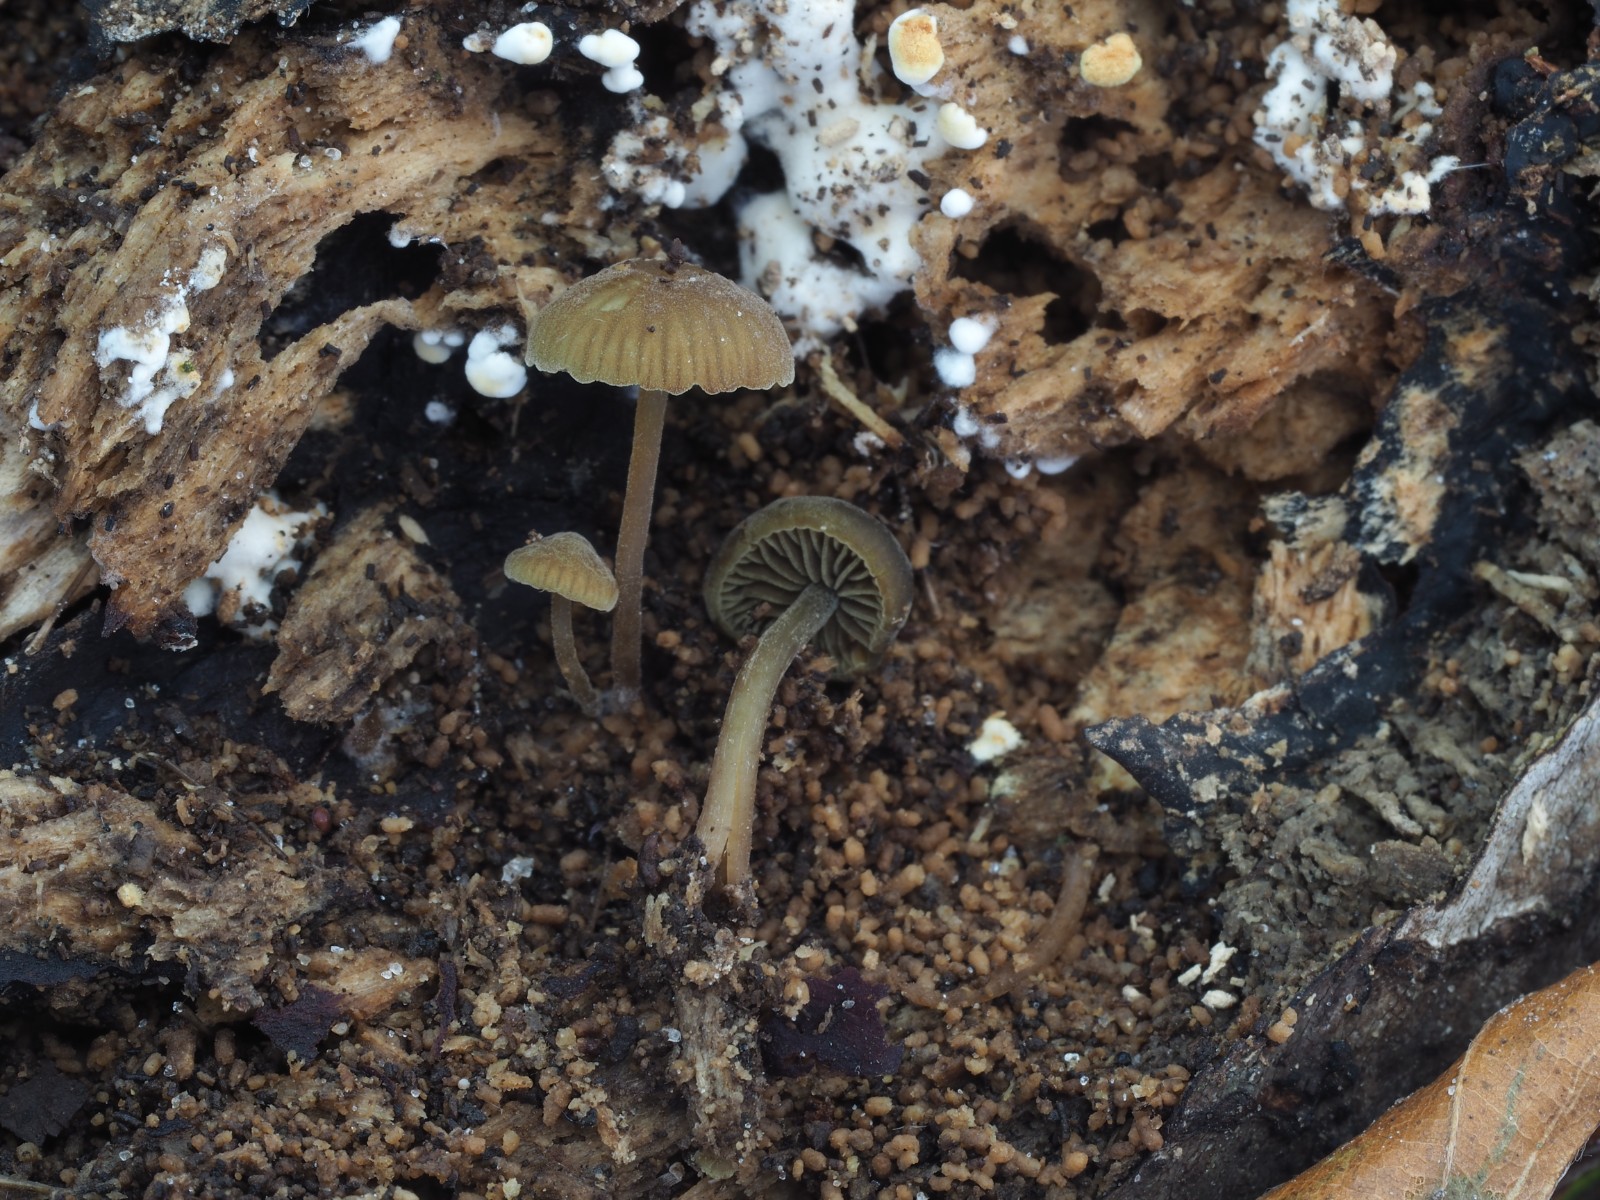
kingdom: Fungi
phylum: Basidiomycota
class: Agaricomycetes
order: Agaricales
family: Crepidotaceae
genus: Simocybe
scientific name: Simocybe centunculus
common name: enlig skyggehat
